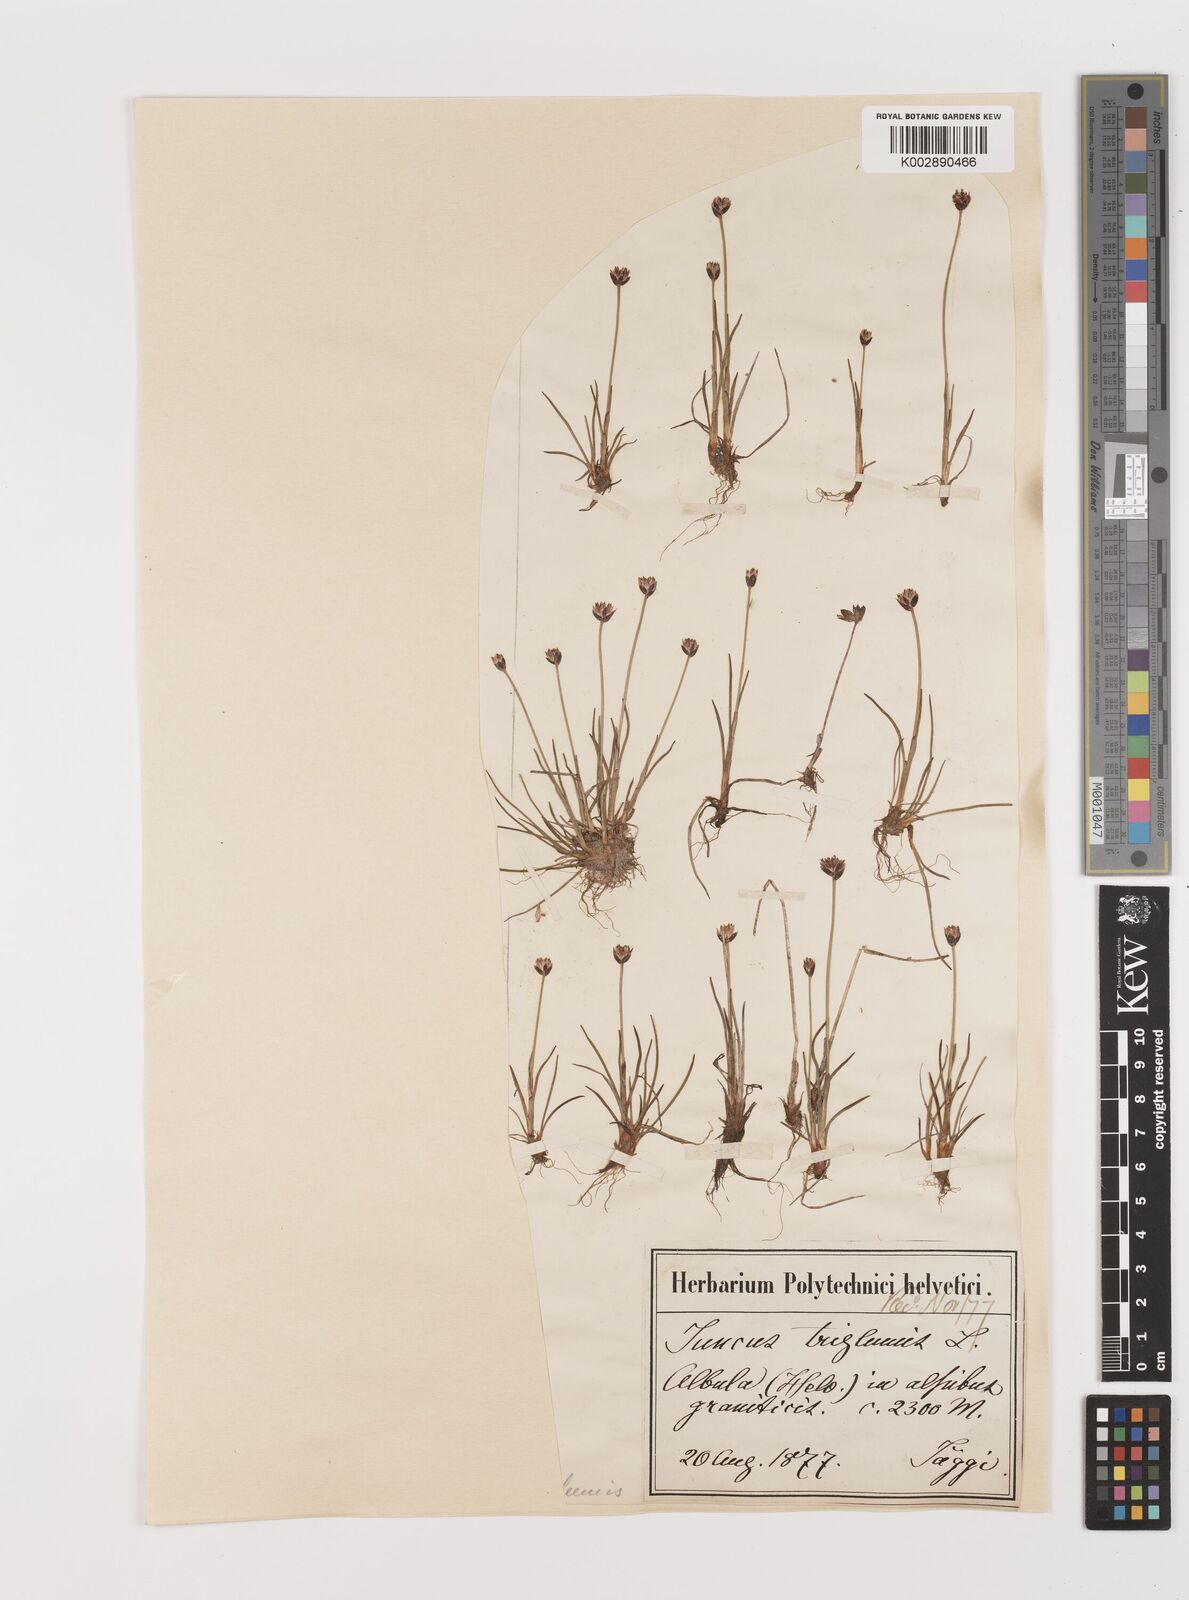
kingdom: Plantae
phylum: Tracheophyta
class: Liliopsida
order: Poales
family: Juncaceae
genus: Juncus
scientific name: Juncus triglumis
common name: Three-flowered rush
